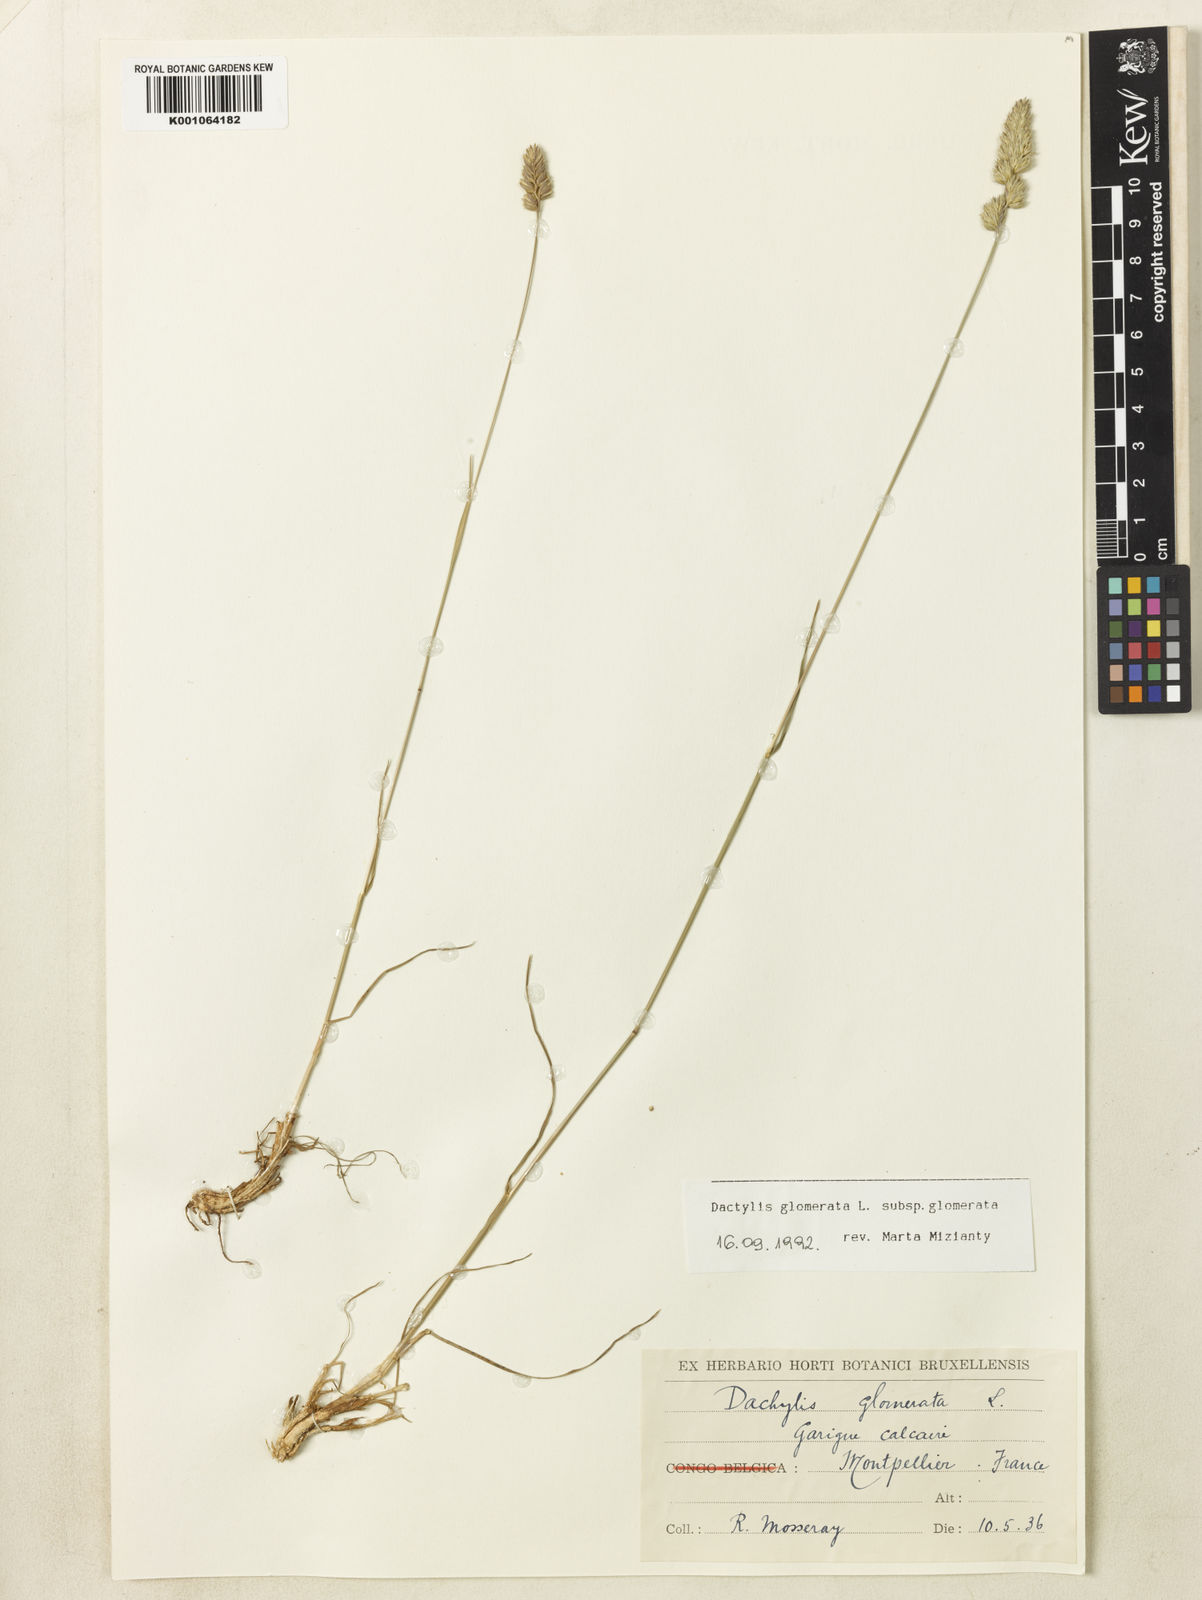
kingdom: Plantae
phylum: Tracheophyta
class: Liliopsida
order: Poales
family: Poaceae
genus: Dactylis
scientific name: Dactylis glomerata
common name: Orchardgrass
